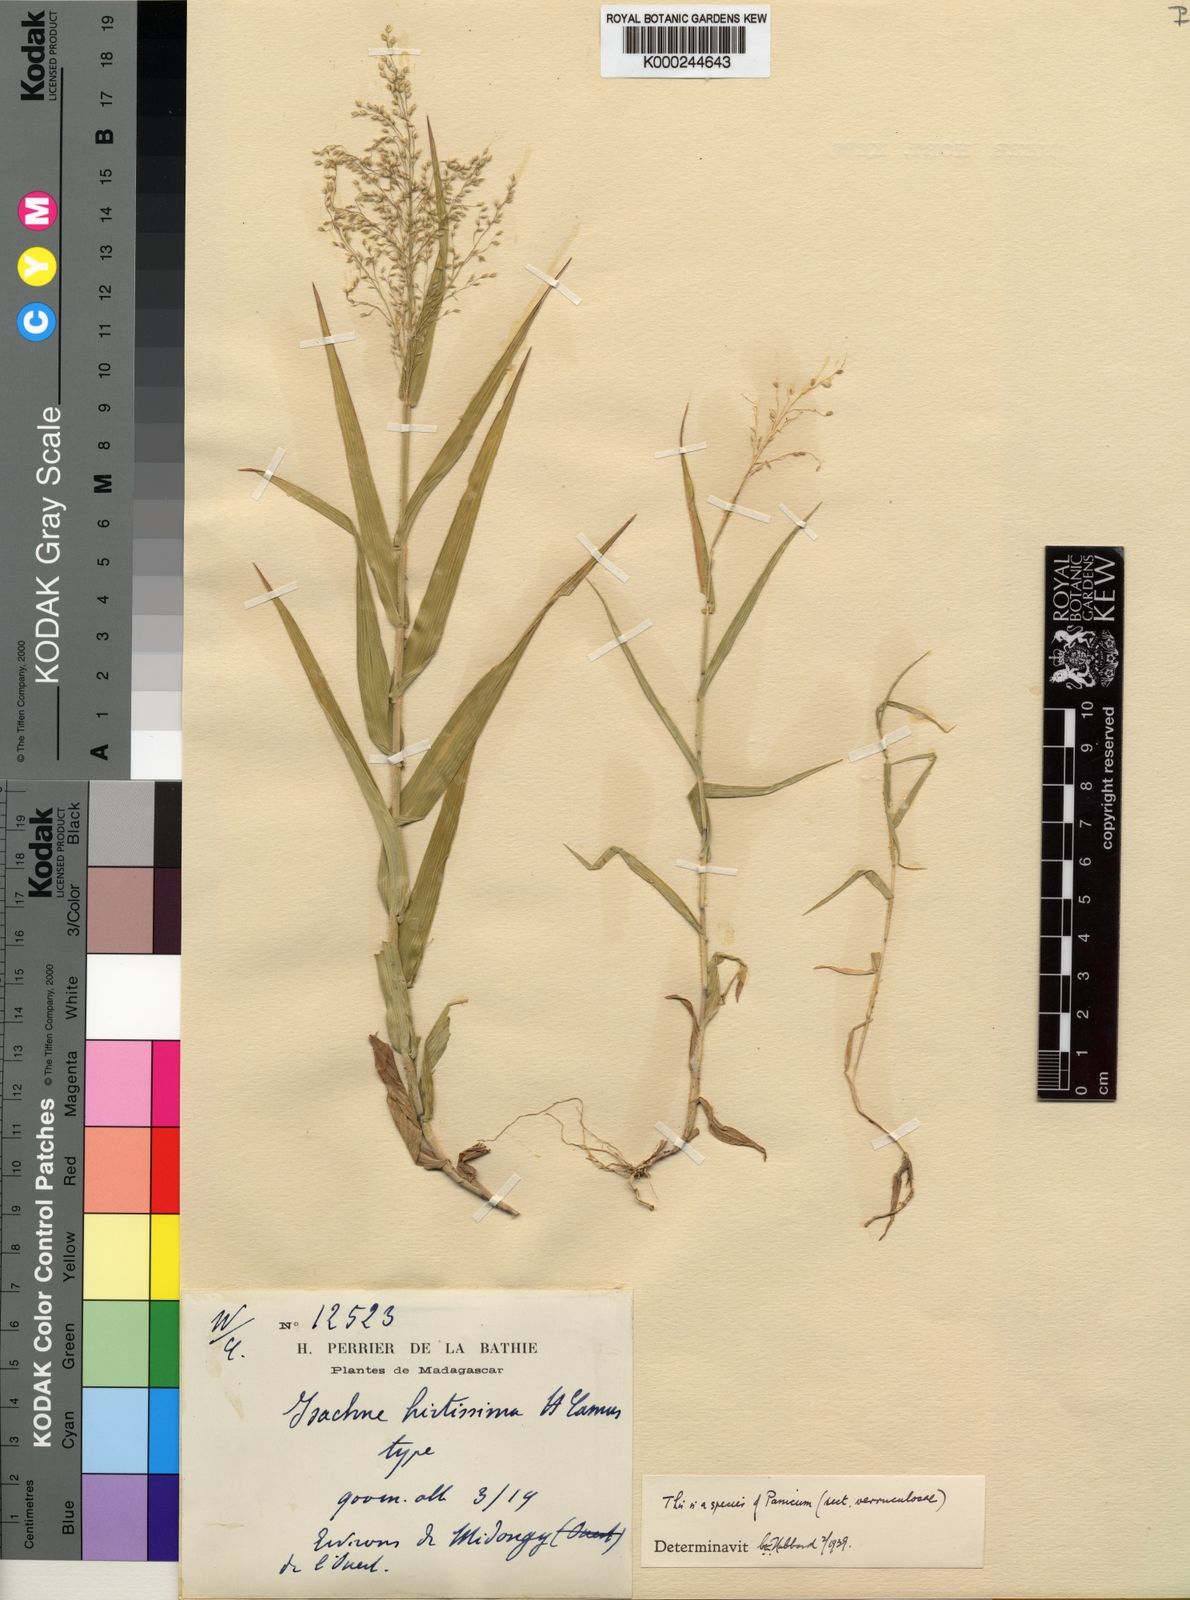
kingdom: Plantae
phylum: Tracheophyta
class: Liliopsida
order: Poales
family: Poaceae
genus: Panicum
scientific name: Panicum subhystrix
